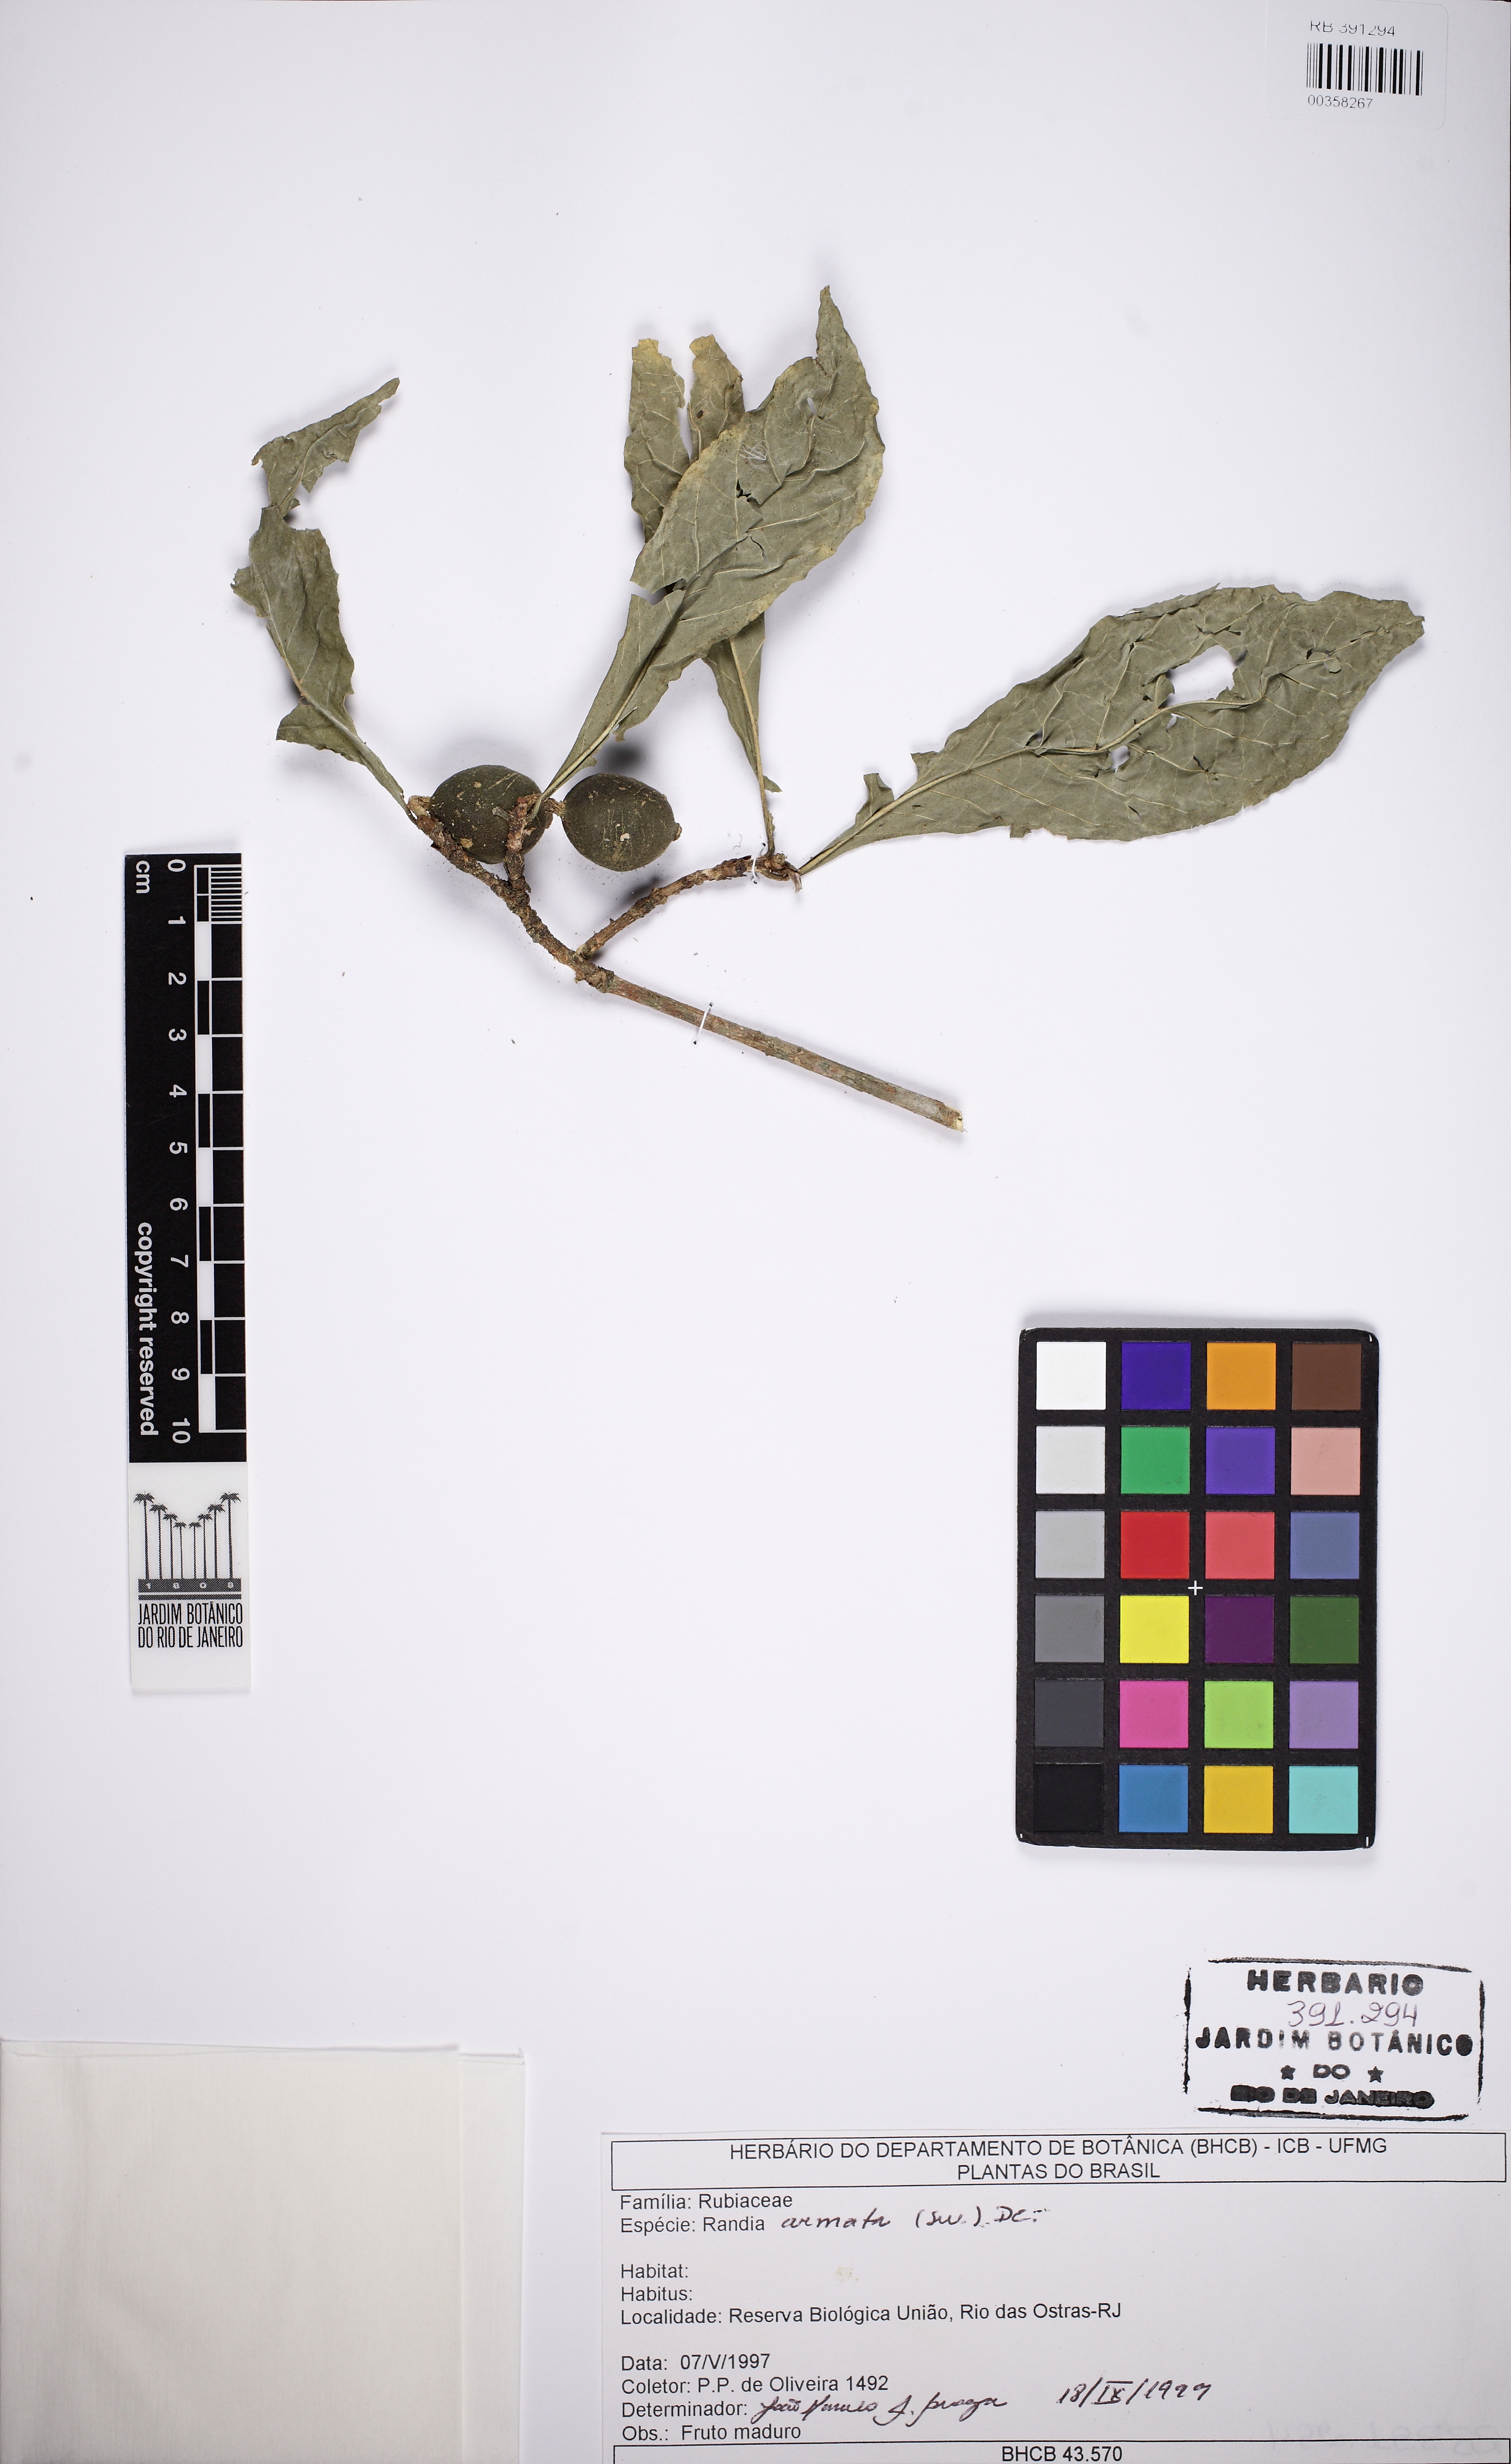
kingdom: Plantae
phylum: Tracheophyta
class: Magnoliopsida
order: Gentianales
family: Rubiaceae
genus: Randia
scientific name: Randia armata
